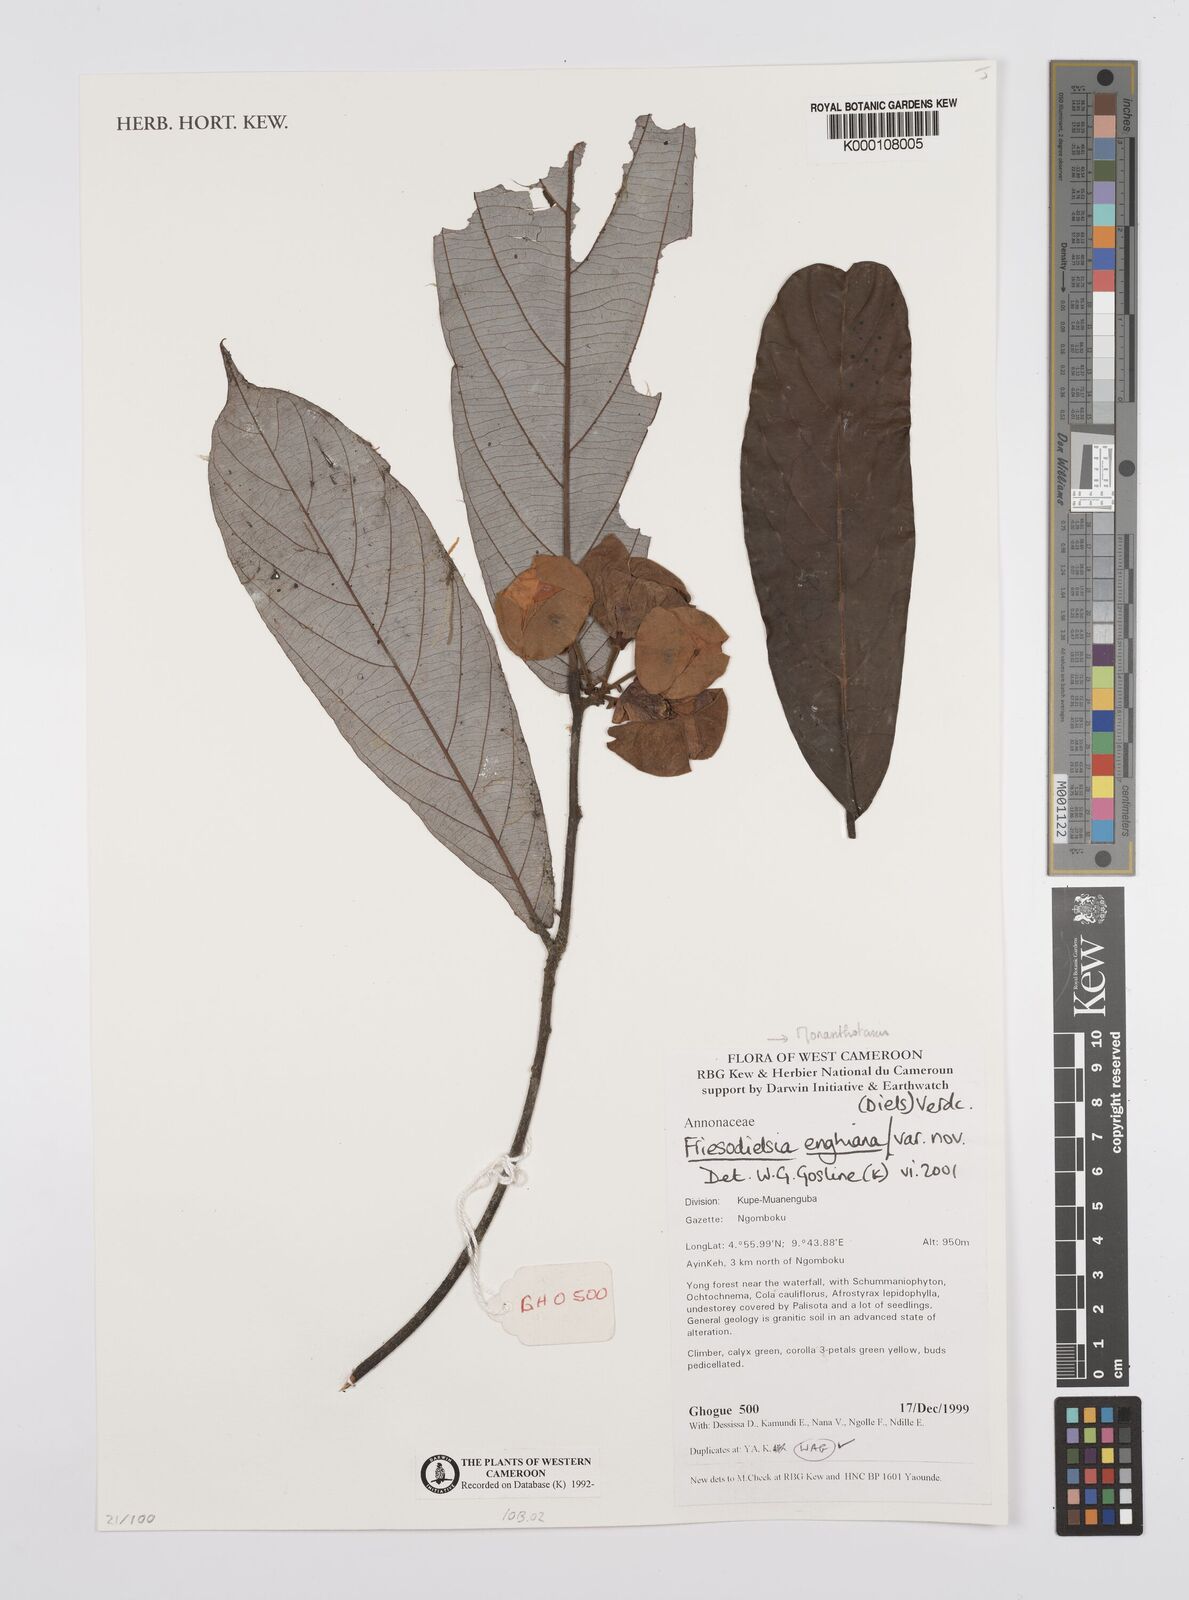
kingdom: Plantae
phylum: Tracheophyta
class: Magnoliopsida
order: Magnoliales
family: Annonaceae
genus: Friesodielsia
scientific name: Friesodielsia enghiana
